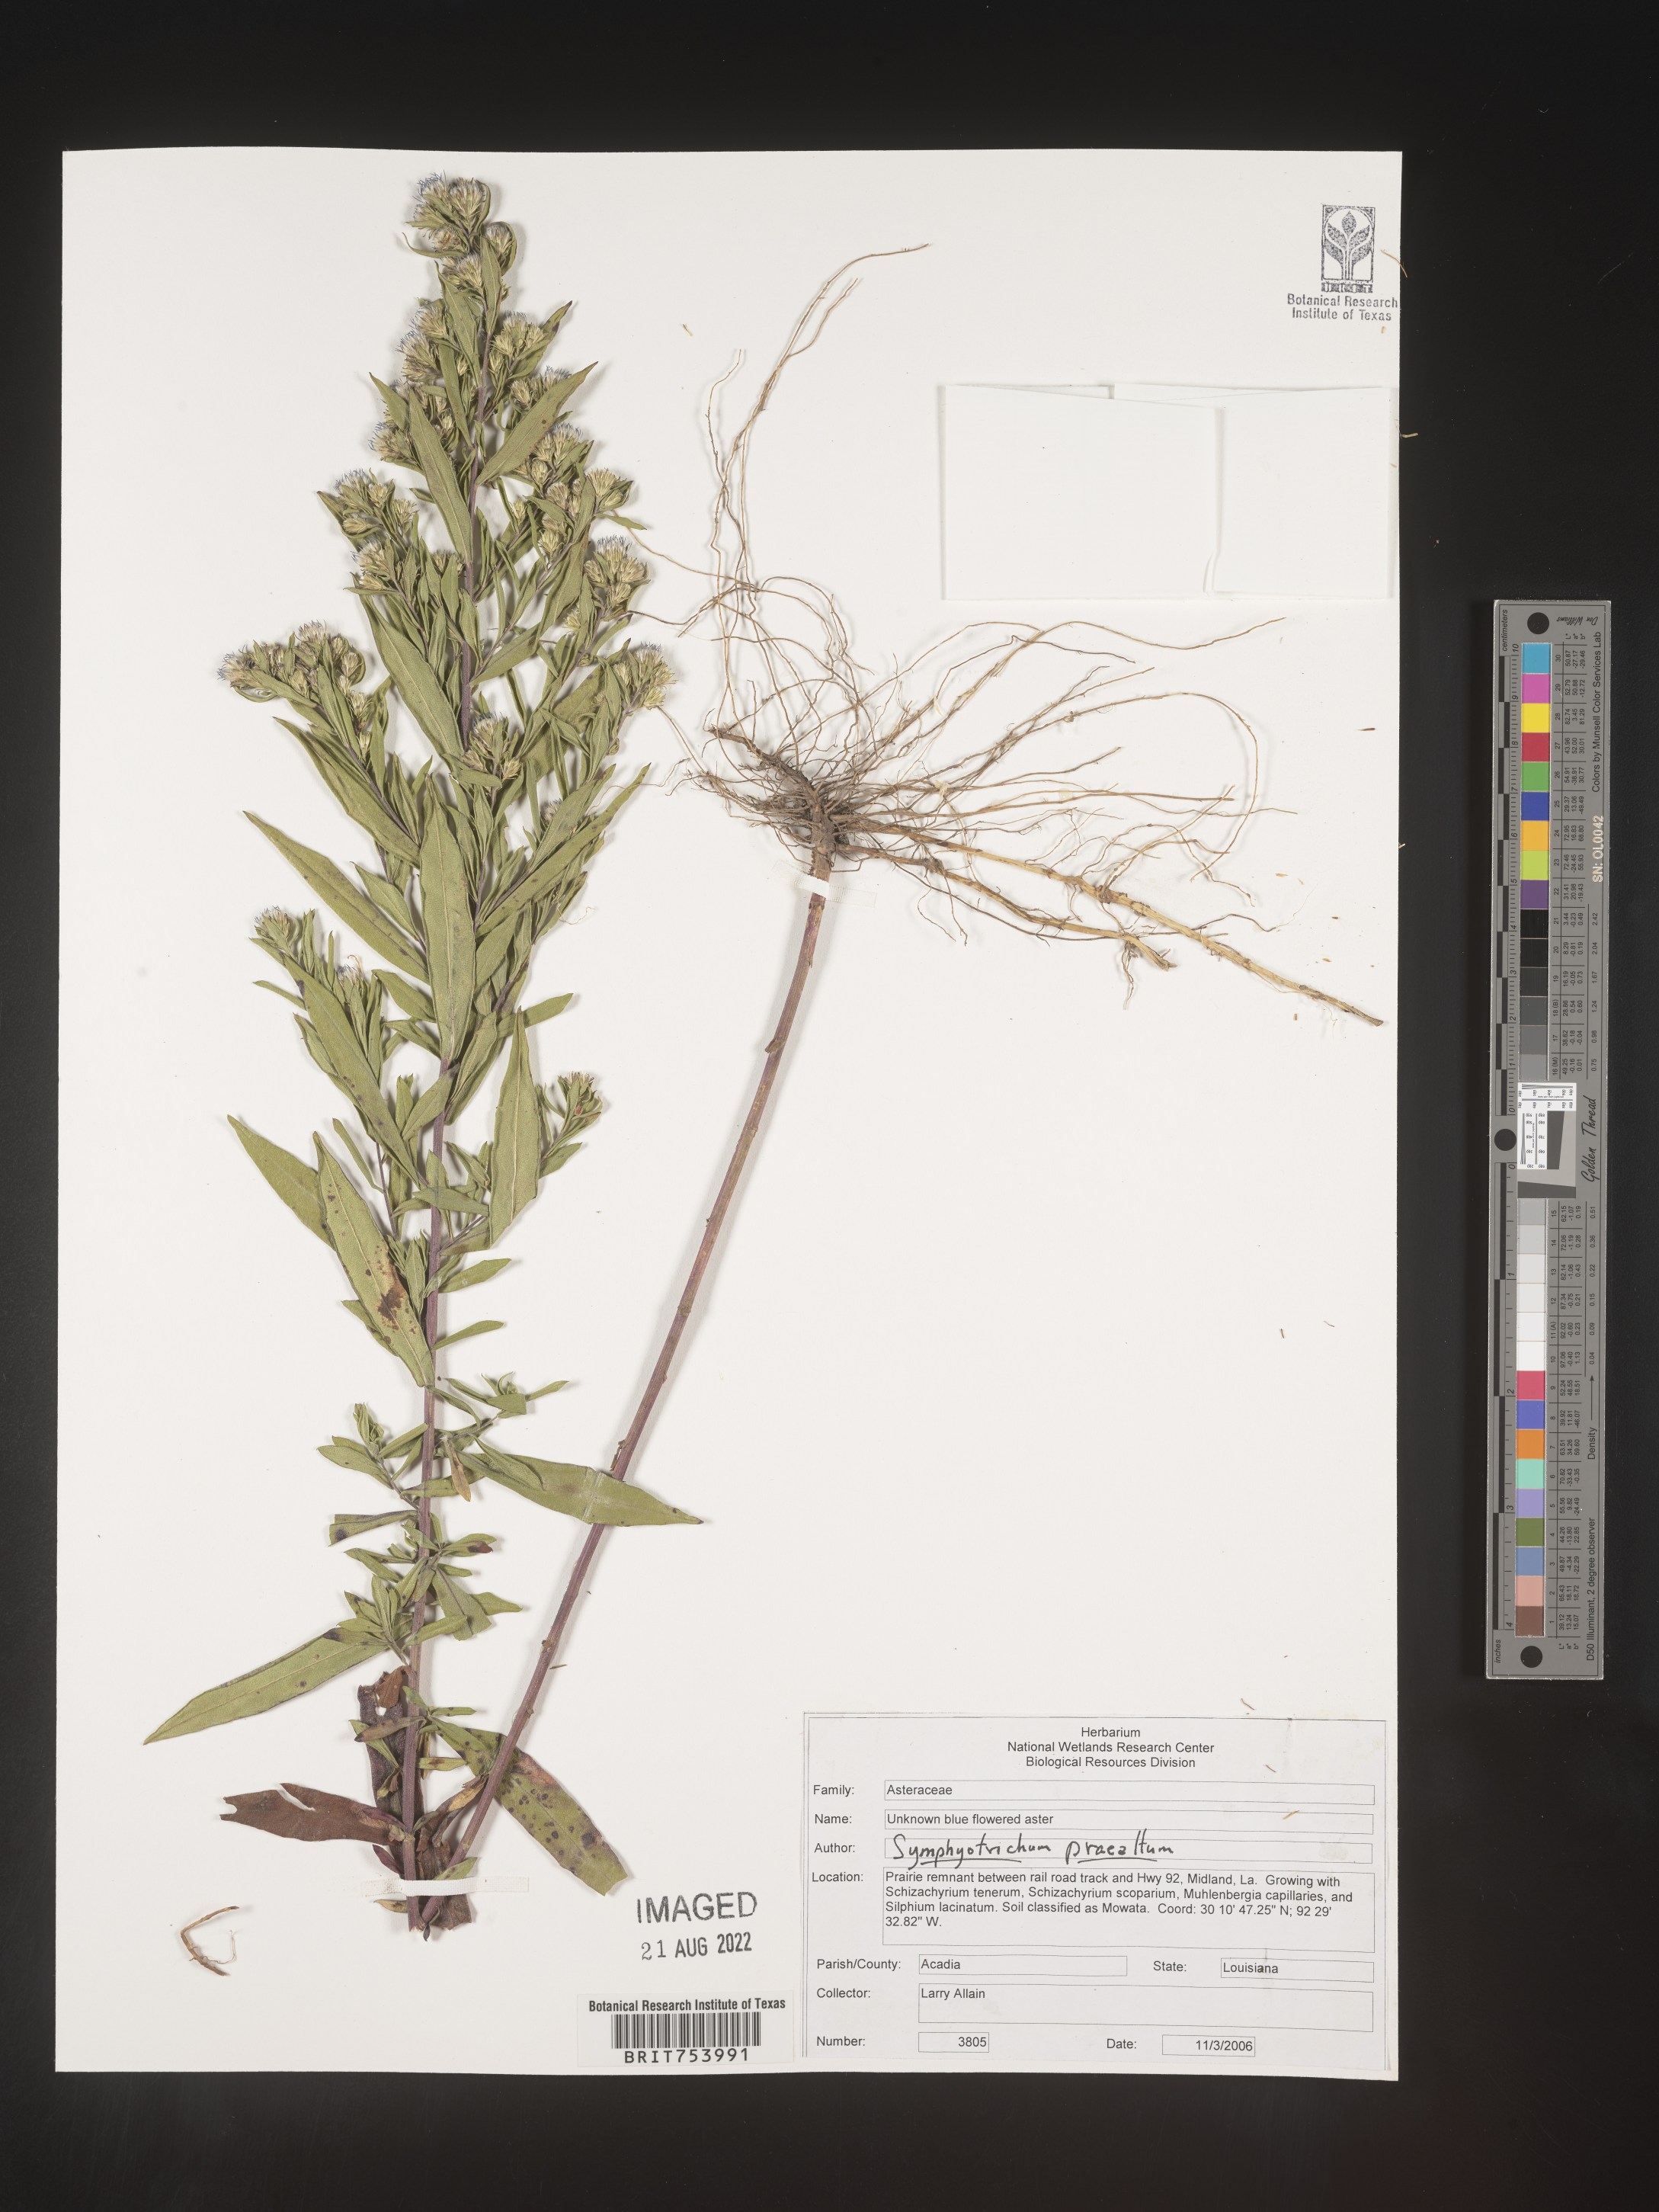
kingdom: Plantae
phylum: Tracheophyta
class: Magnoliopsida
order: Asterales
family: Asteraceae
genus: Symphyotrichum
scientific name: Symphyotrichum praealtum
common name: Willow aster
